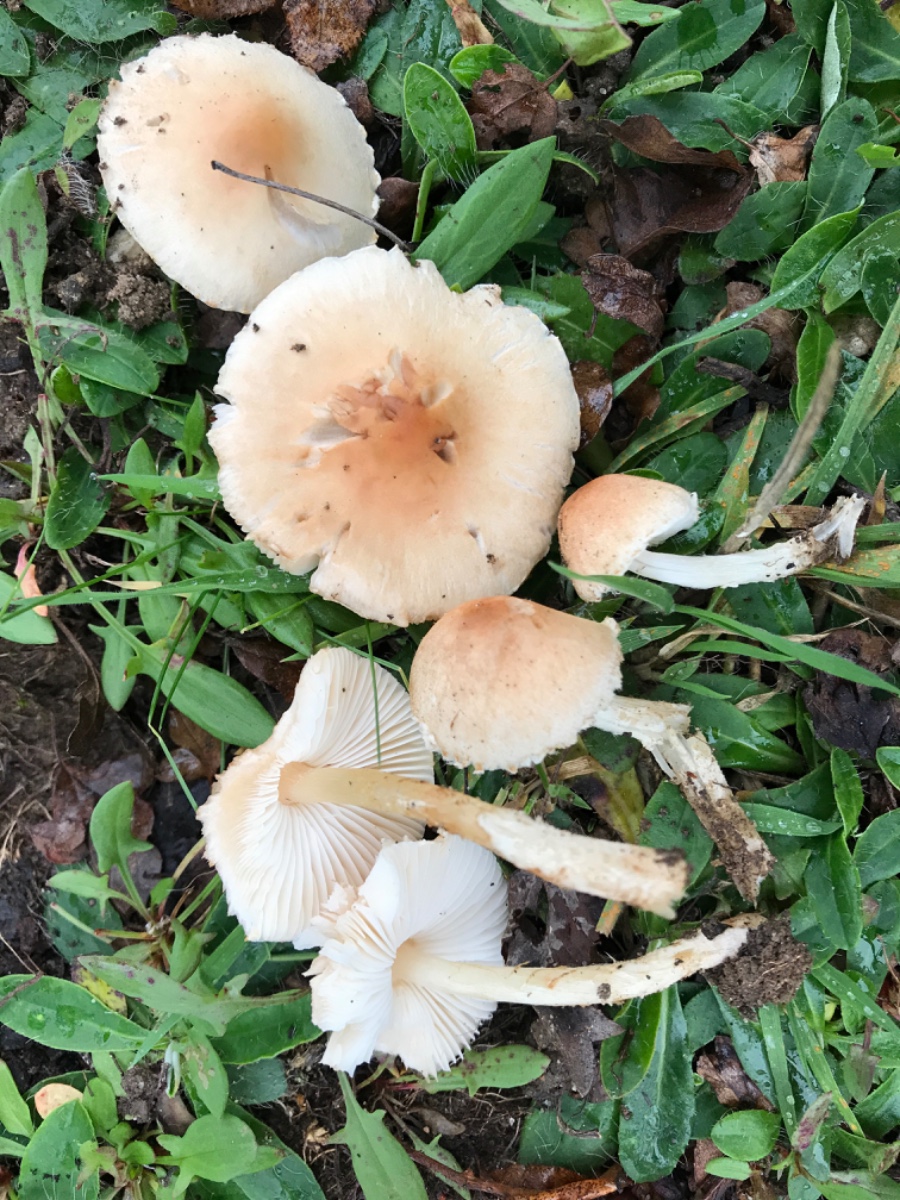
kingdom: Fungi
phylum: Basidiomycota
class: Agaricomycetes
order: Agaricales
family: Agaricaceae
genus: Lepiota
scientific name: Lepiota oreadiformis
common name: blegbrun parasolhat
